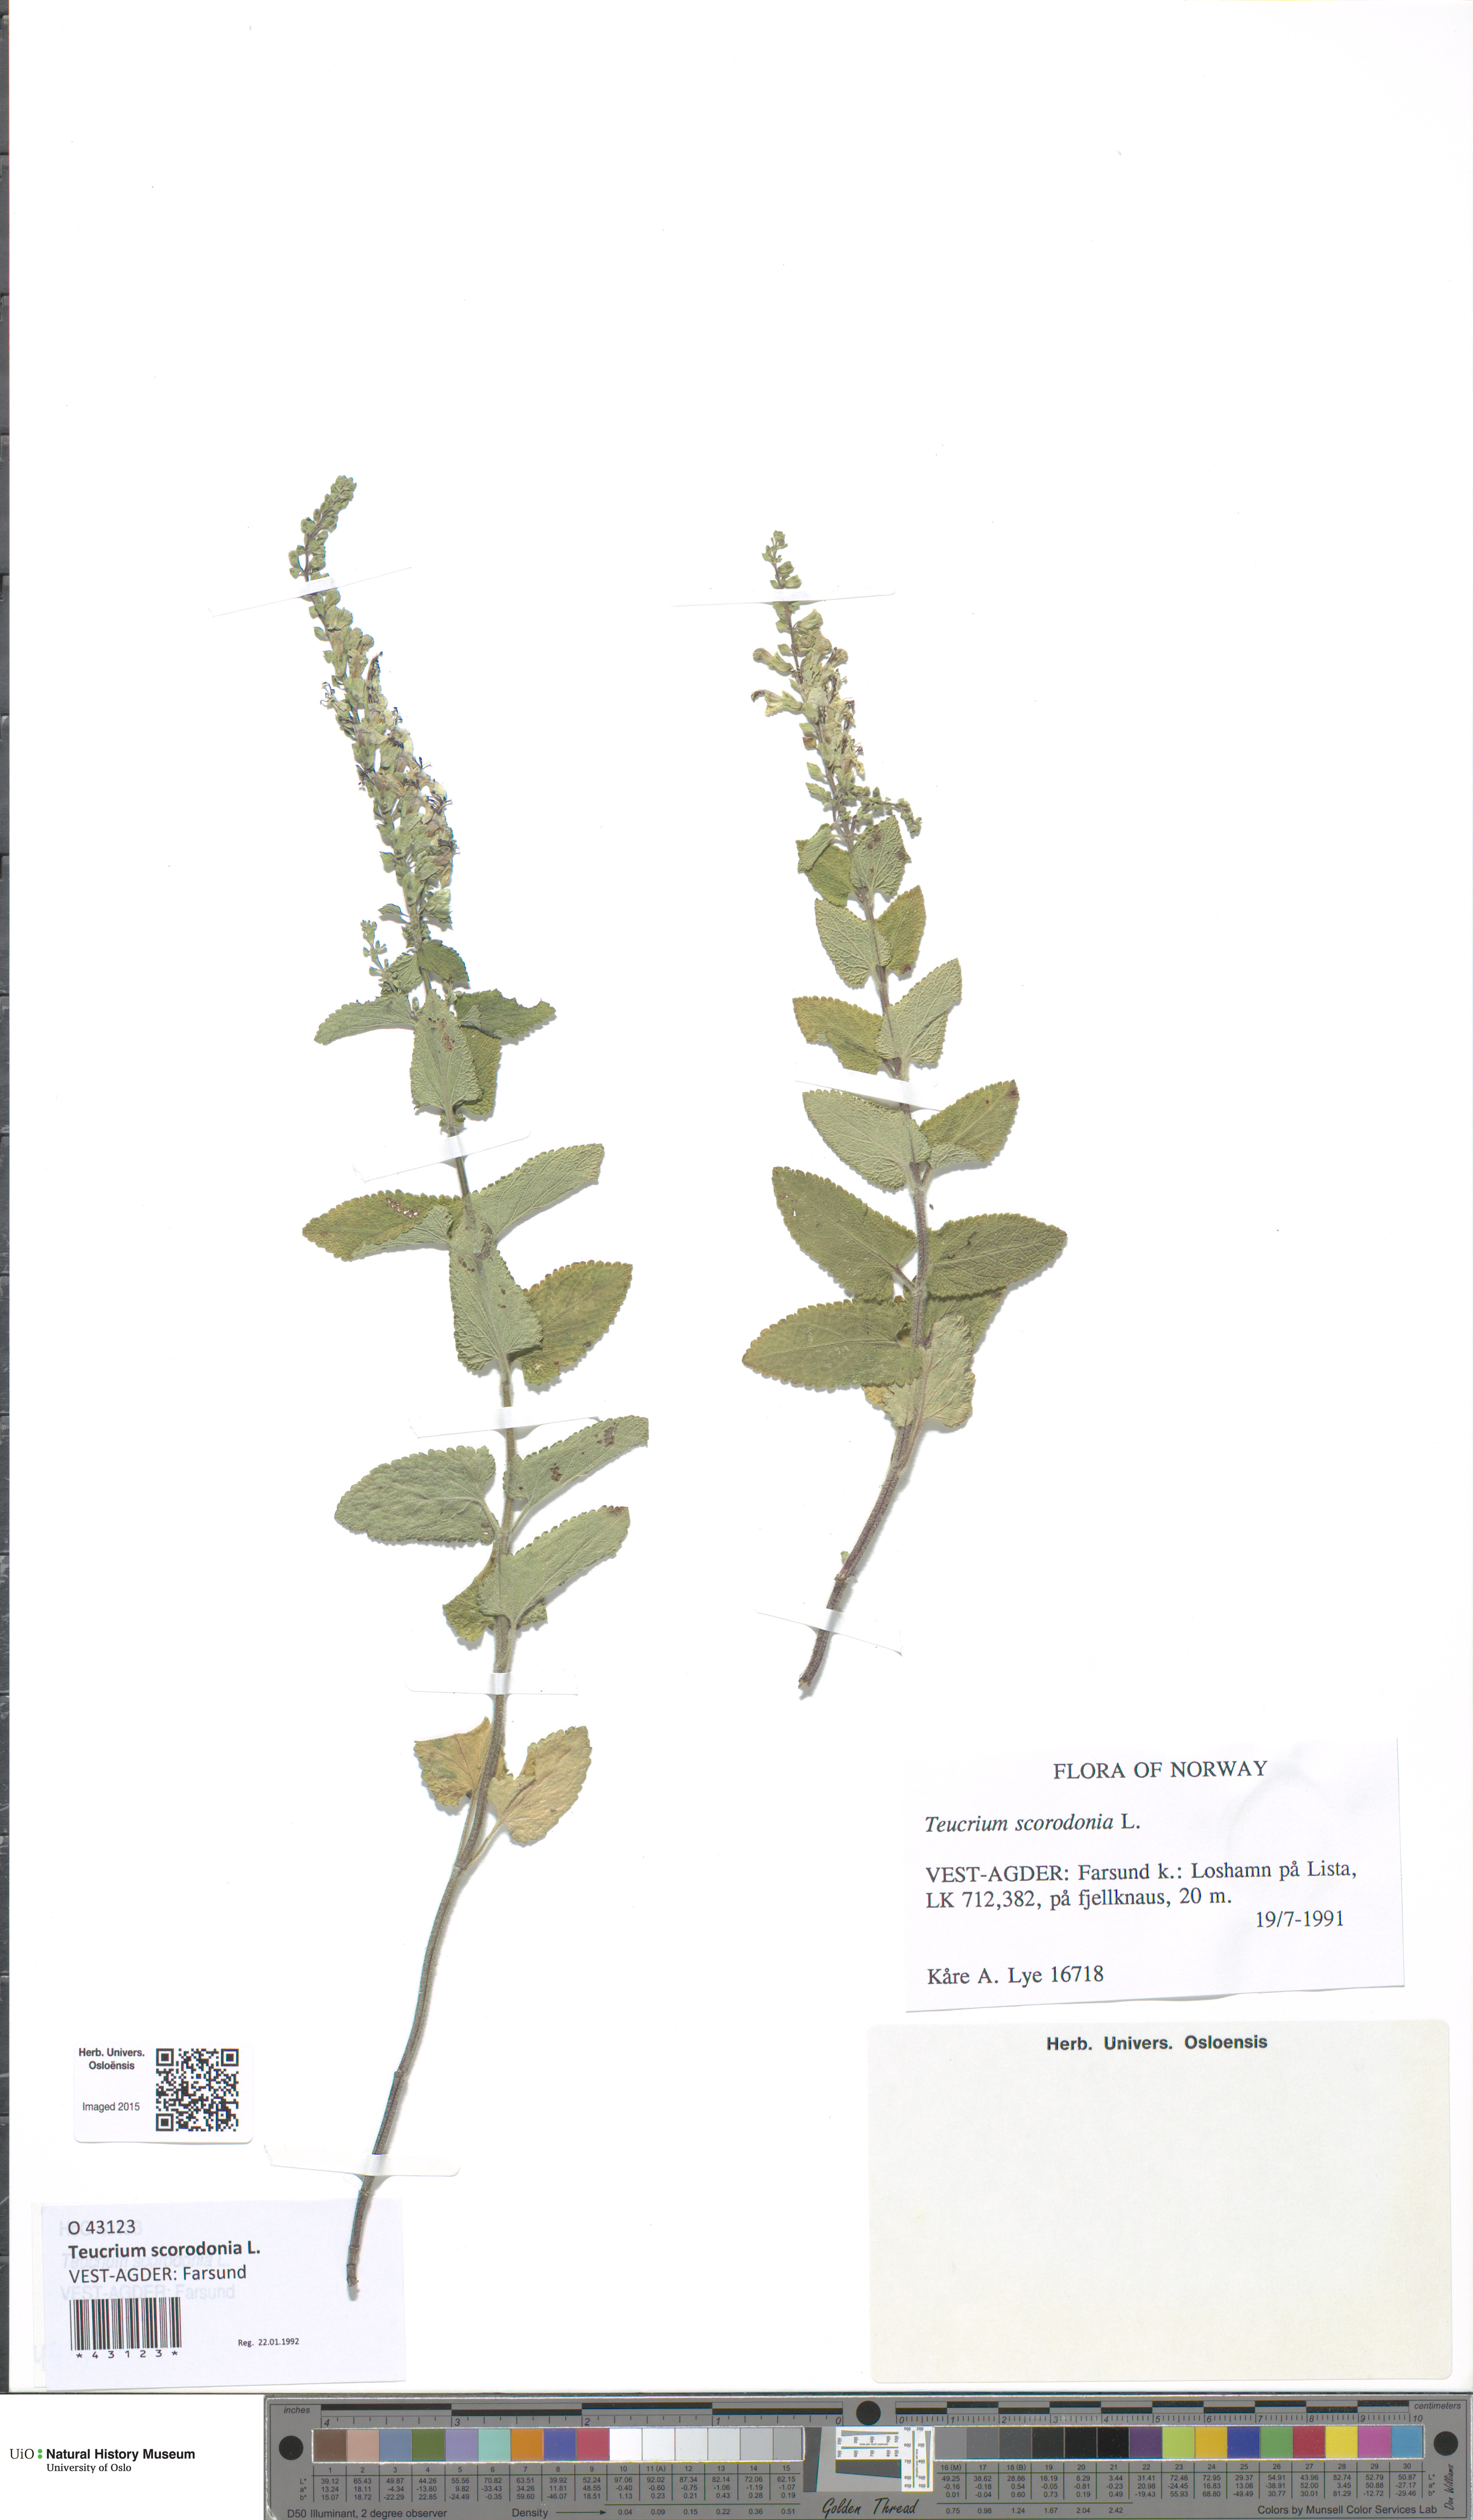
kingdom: Plantae
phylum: Tracheophyta
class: Magnoliopsida
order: Lamiales
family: Lamiaceae
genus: Teucrium
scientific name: Teucrium scorodonia
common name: Woodland germander
